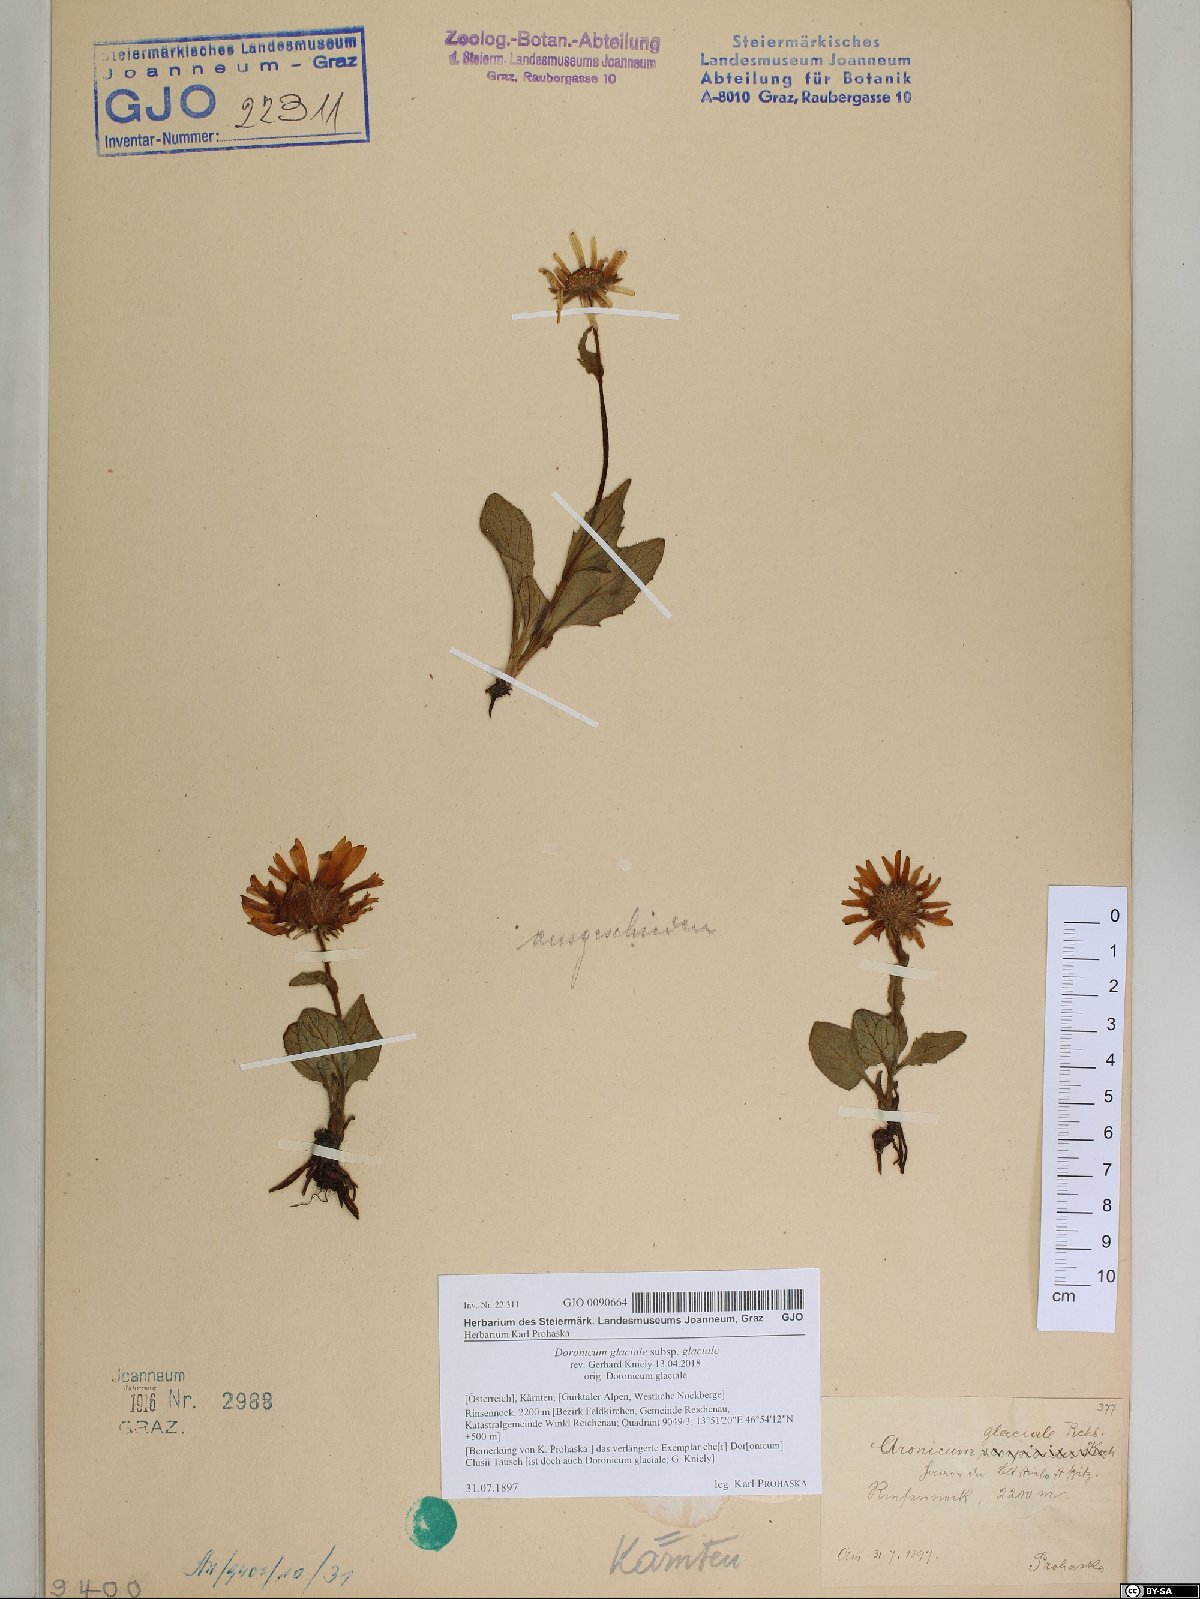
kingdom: Plantae
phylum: Tracheophyta
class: Magnoliopsida
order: Asterales
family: Asteraceae
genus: Doronicum
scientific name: Doronicum glaciale
